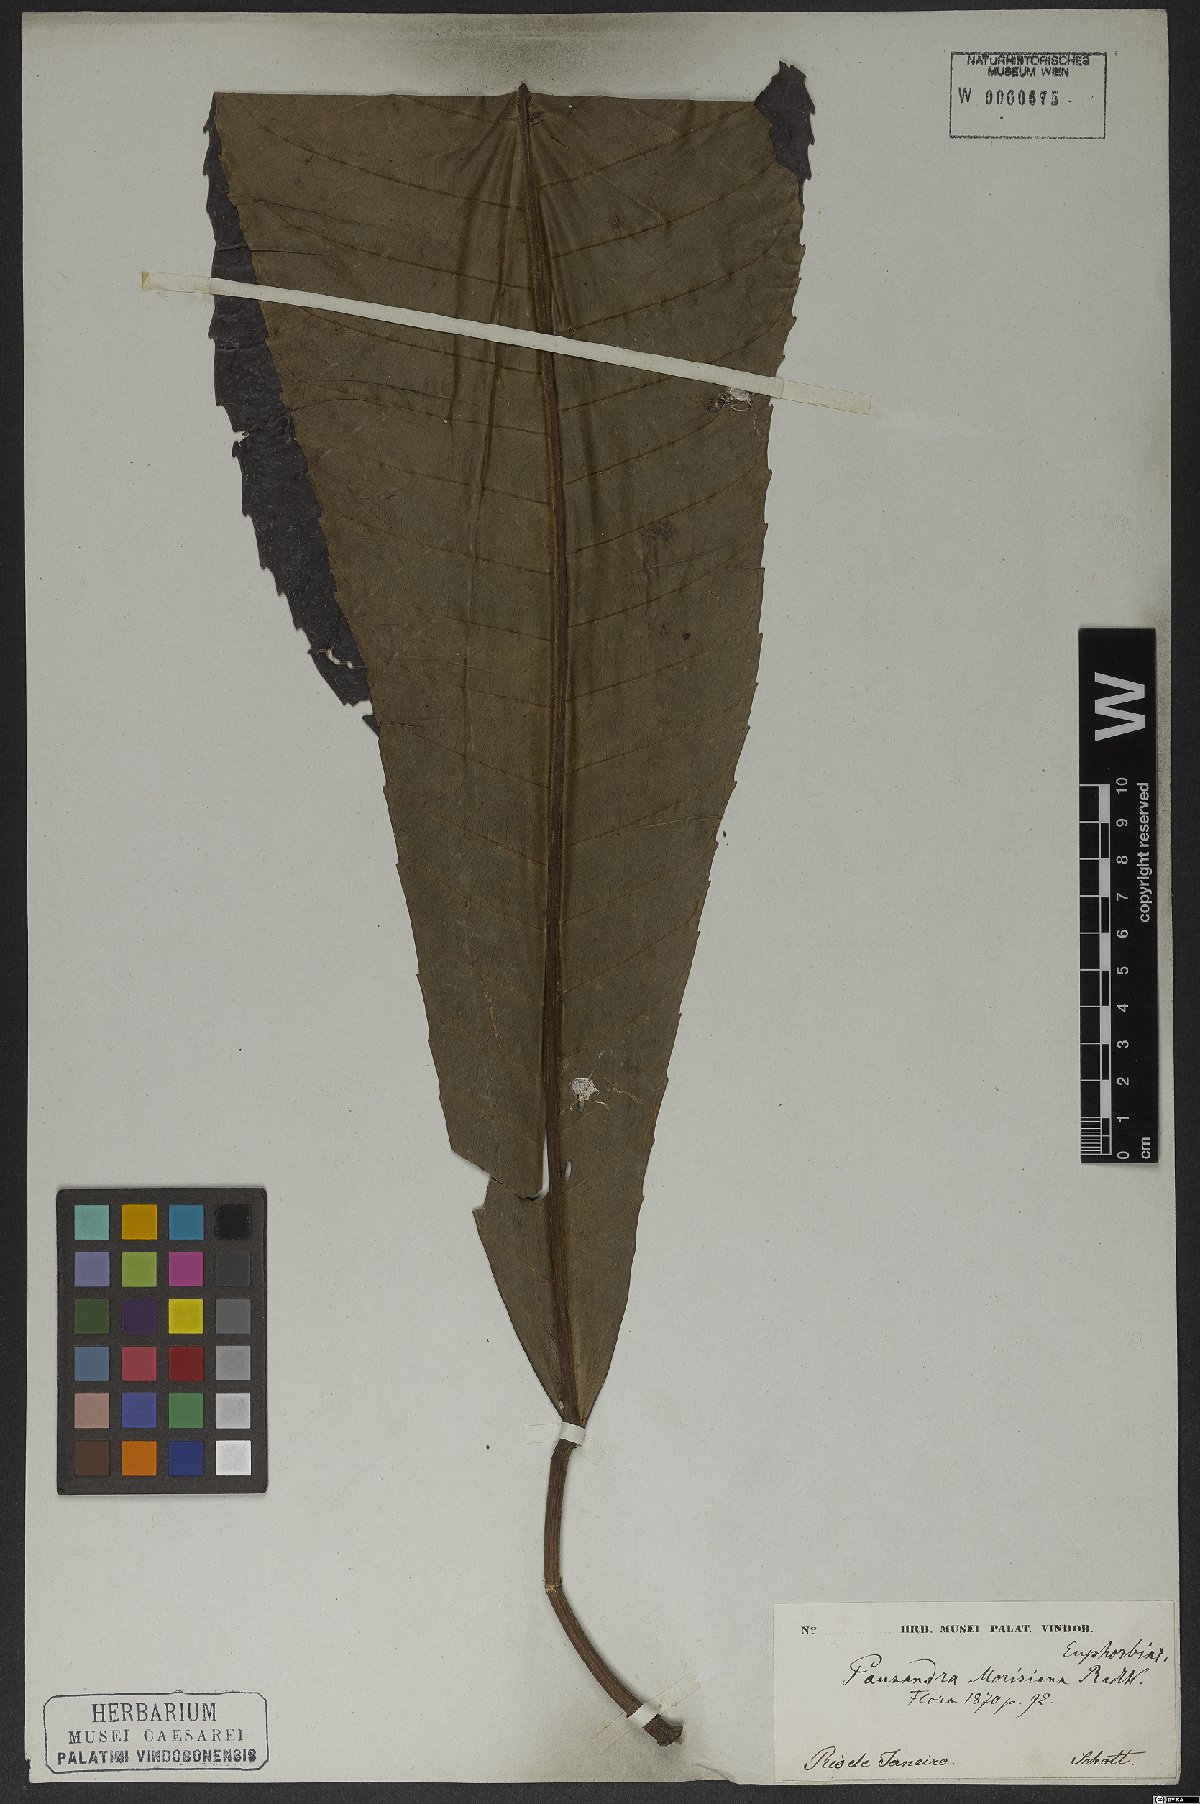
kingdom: Plantae
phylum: Tracheophyta
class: Magnoliopsida
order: Malpighiales
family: Euphorbiaceae
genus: Pausandra
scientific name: Pausandra morisiana
